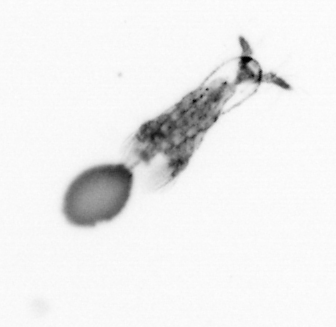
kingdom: Animalia
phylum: Arthropoda
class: Copepoda
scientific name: Copepoda
